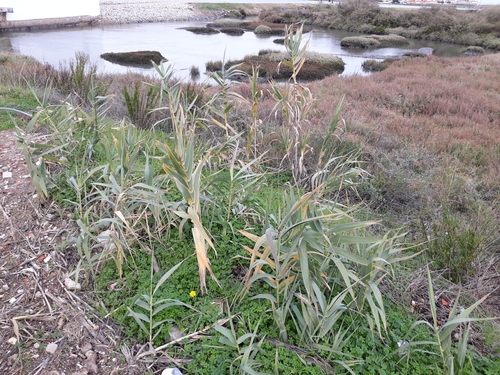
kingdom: Plantae
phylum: Tracheophyta
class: Liliopsida
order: Poales
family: Poaceae
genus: Arundo
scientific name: Arundo donax
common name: Giant reed
